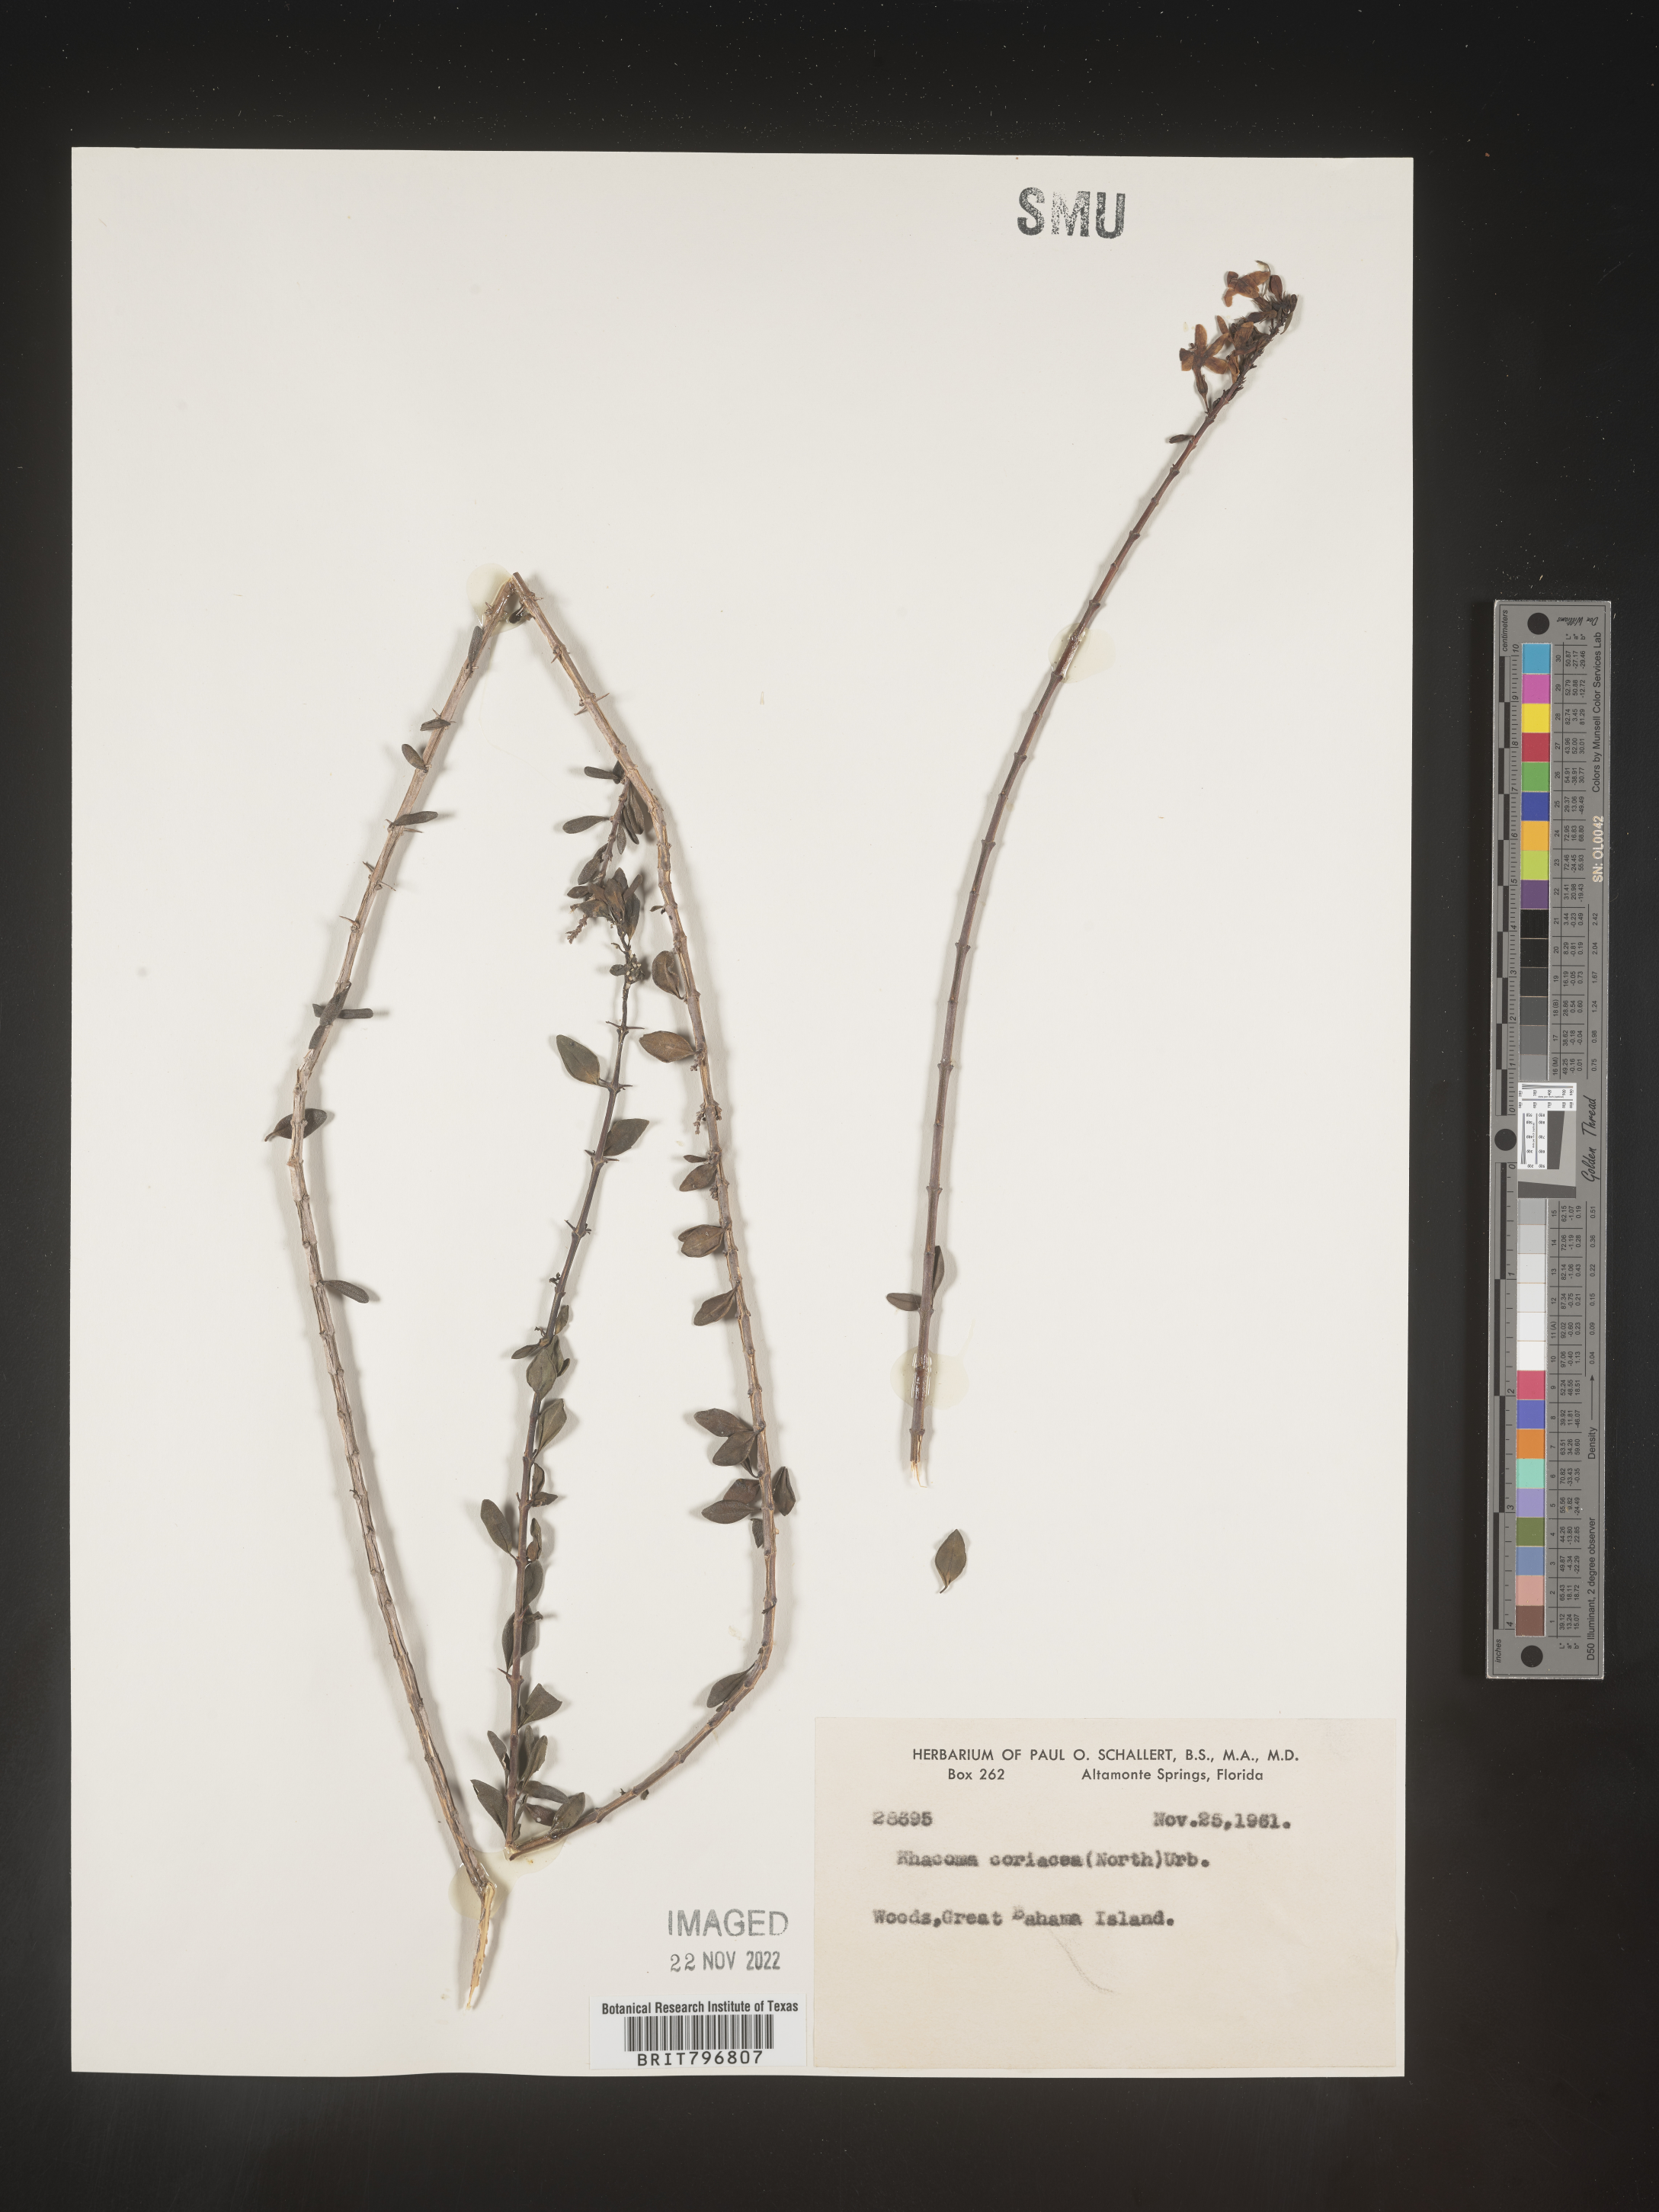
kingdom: Plantae
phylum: Tracheophyta
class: Magnoliopsida
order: Celastrales
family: Celastraceae
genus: Crossopetalum
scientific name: Crossopetalum
